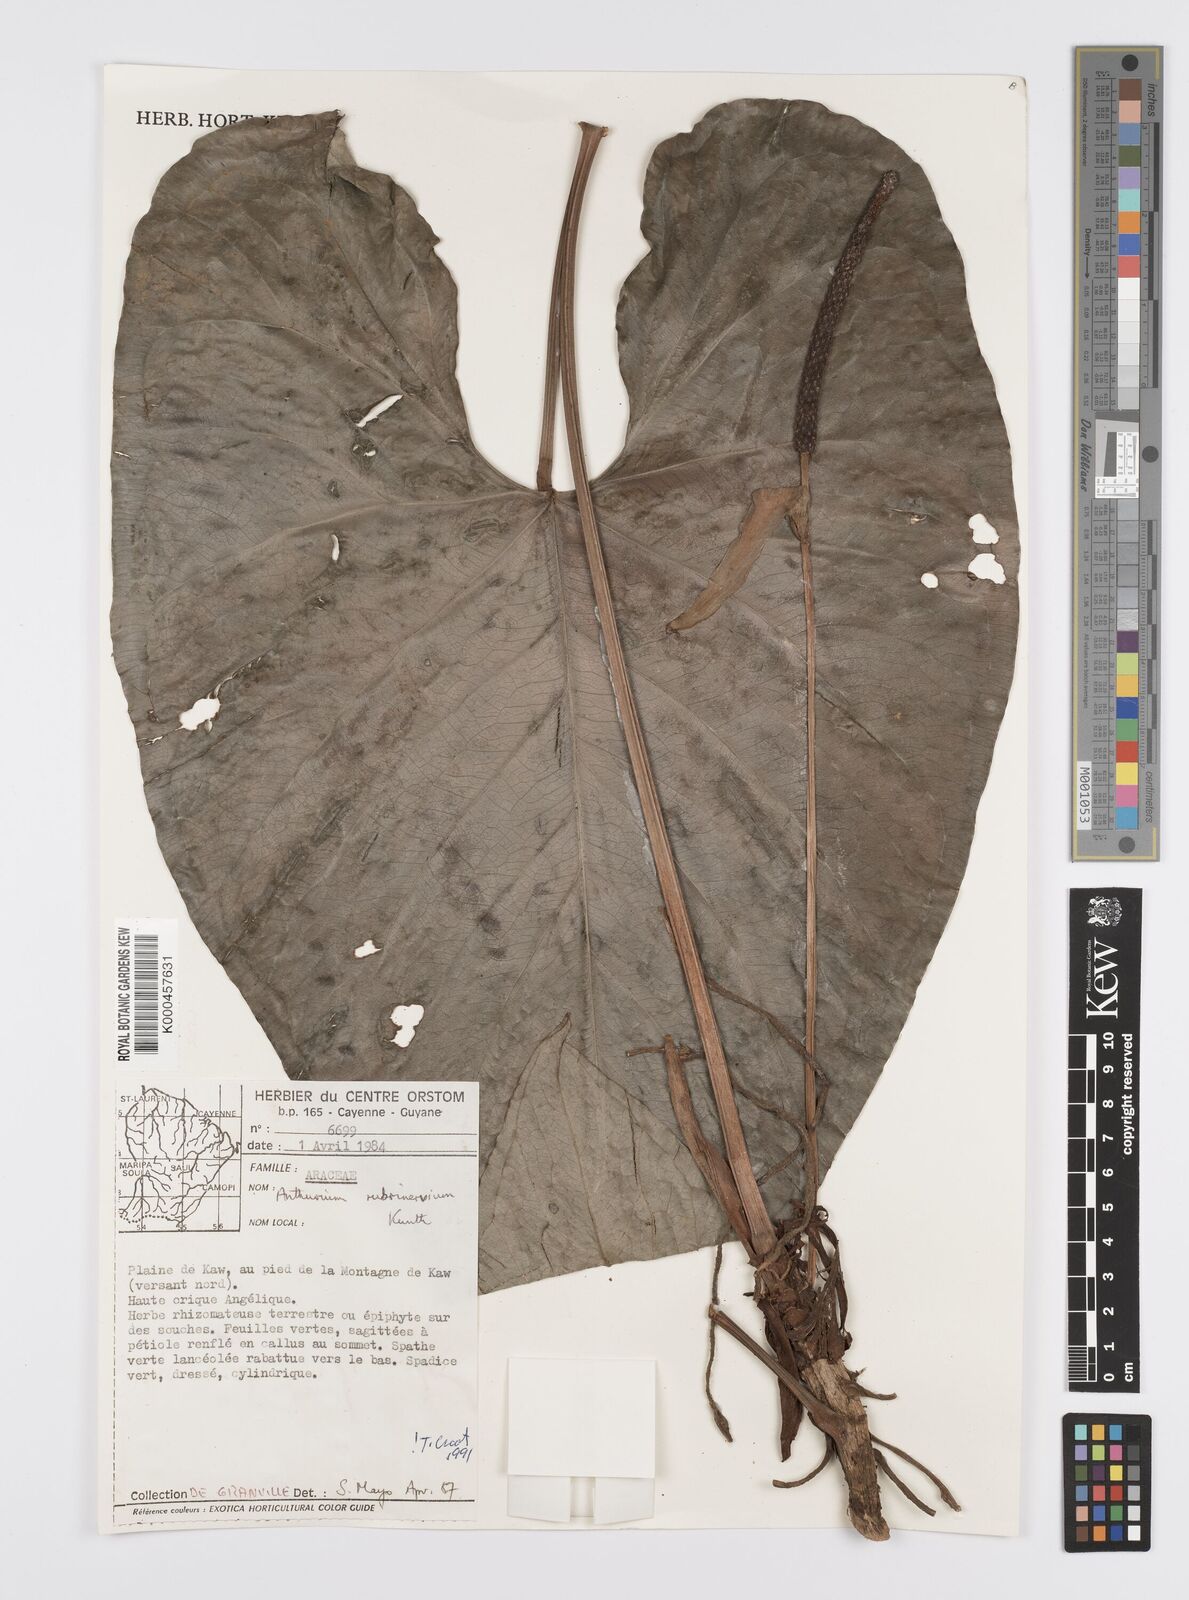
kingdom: Plantae
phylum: Tracheophyta
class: Liliopsida
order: Alismatales
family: Araceae
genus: Anthurium
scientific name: Anthurium sagittatum
